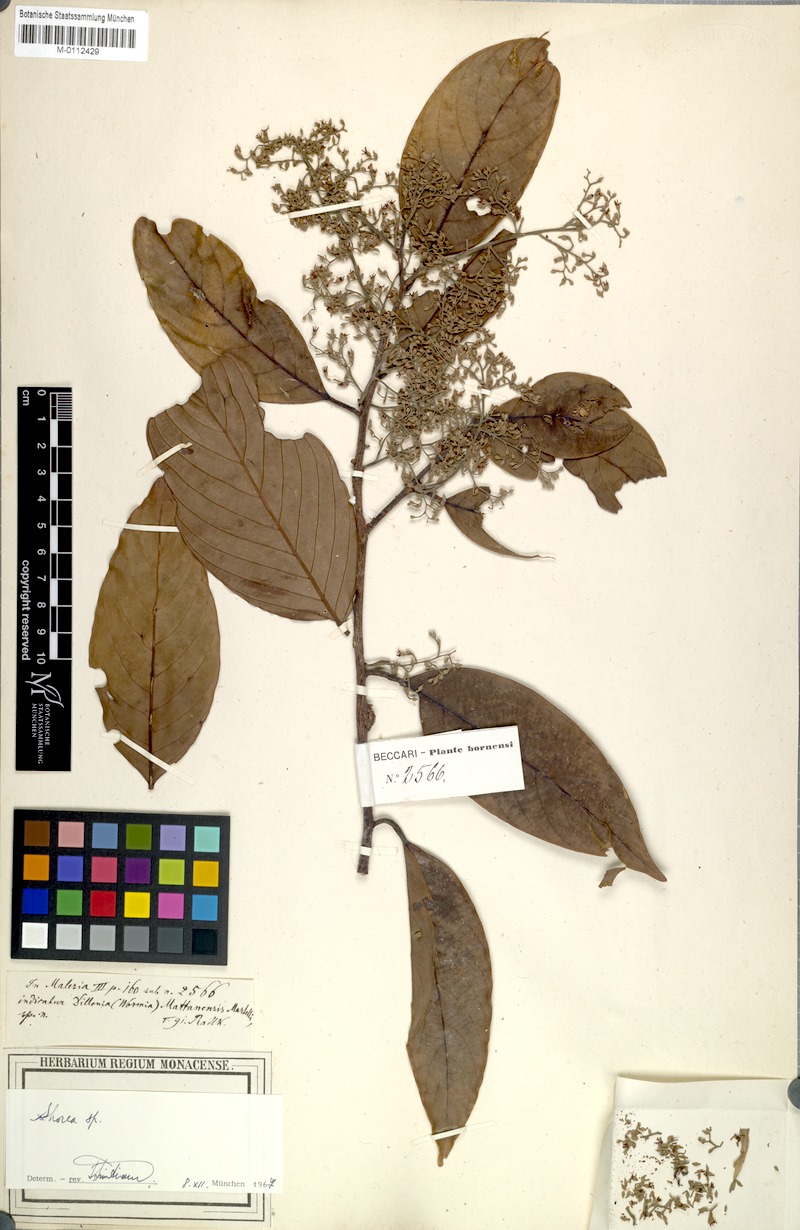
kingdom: Plantae
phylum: Tracheophyta
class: Magnoliopsida
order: Malvales
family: Dipterocarpaceae
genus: Shorea
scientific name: Shorea
